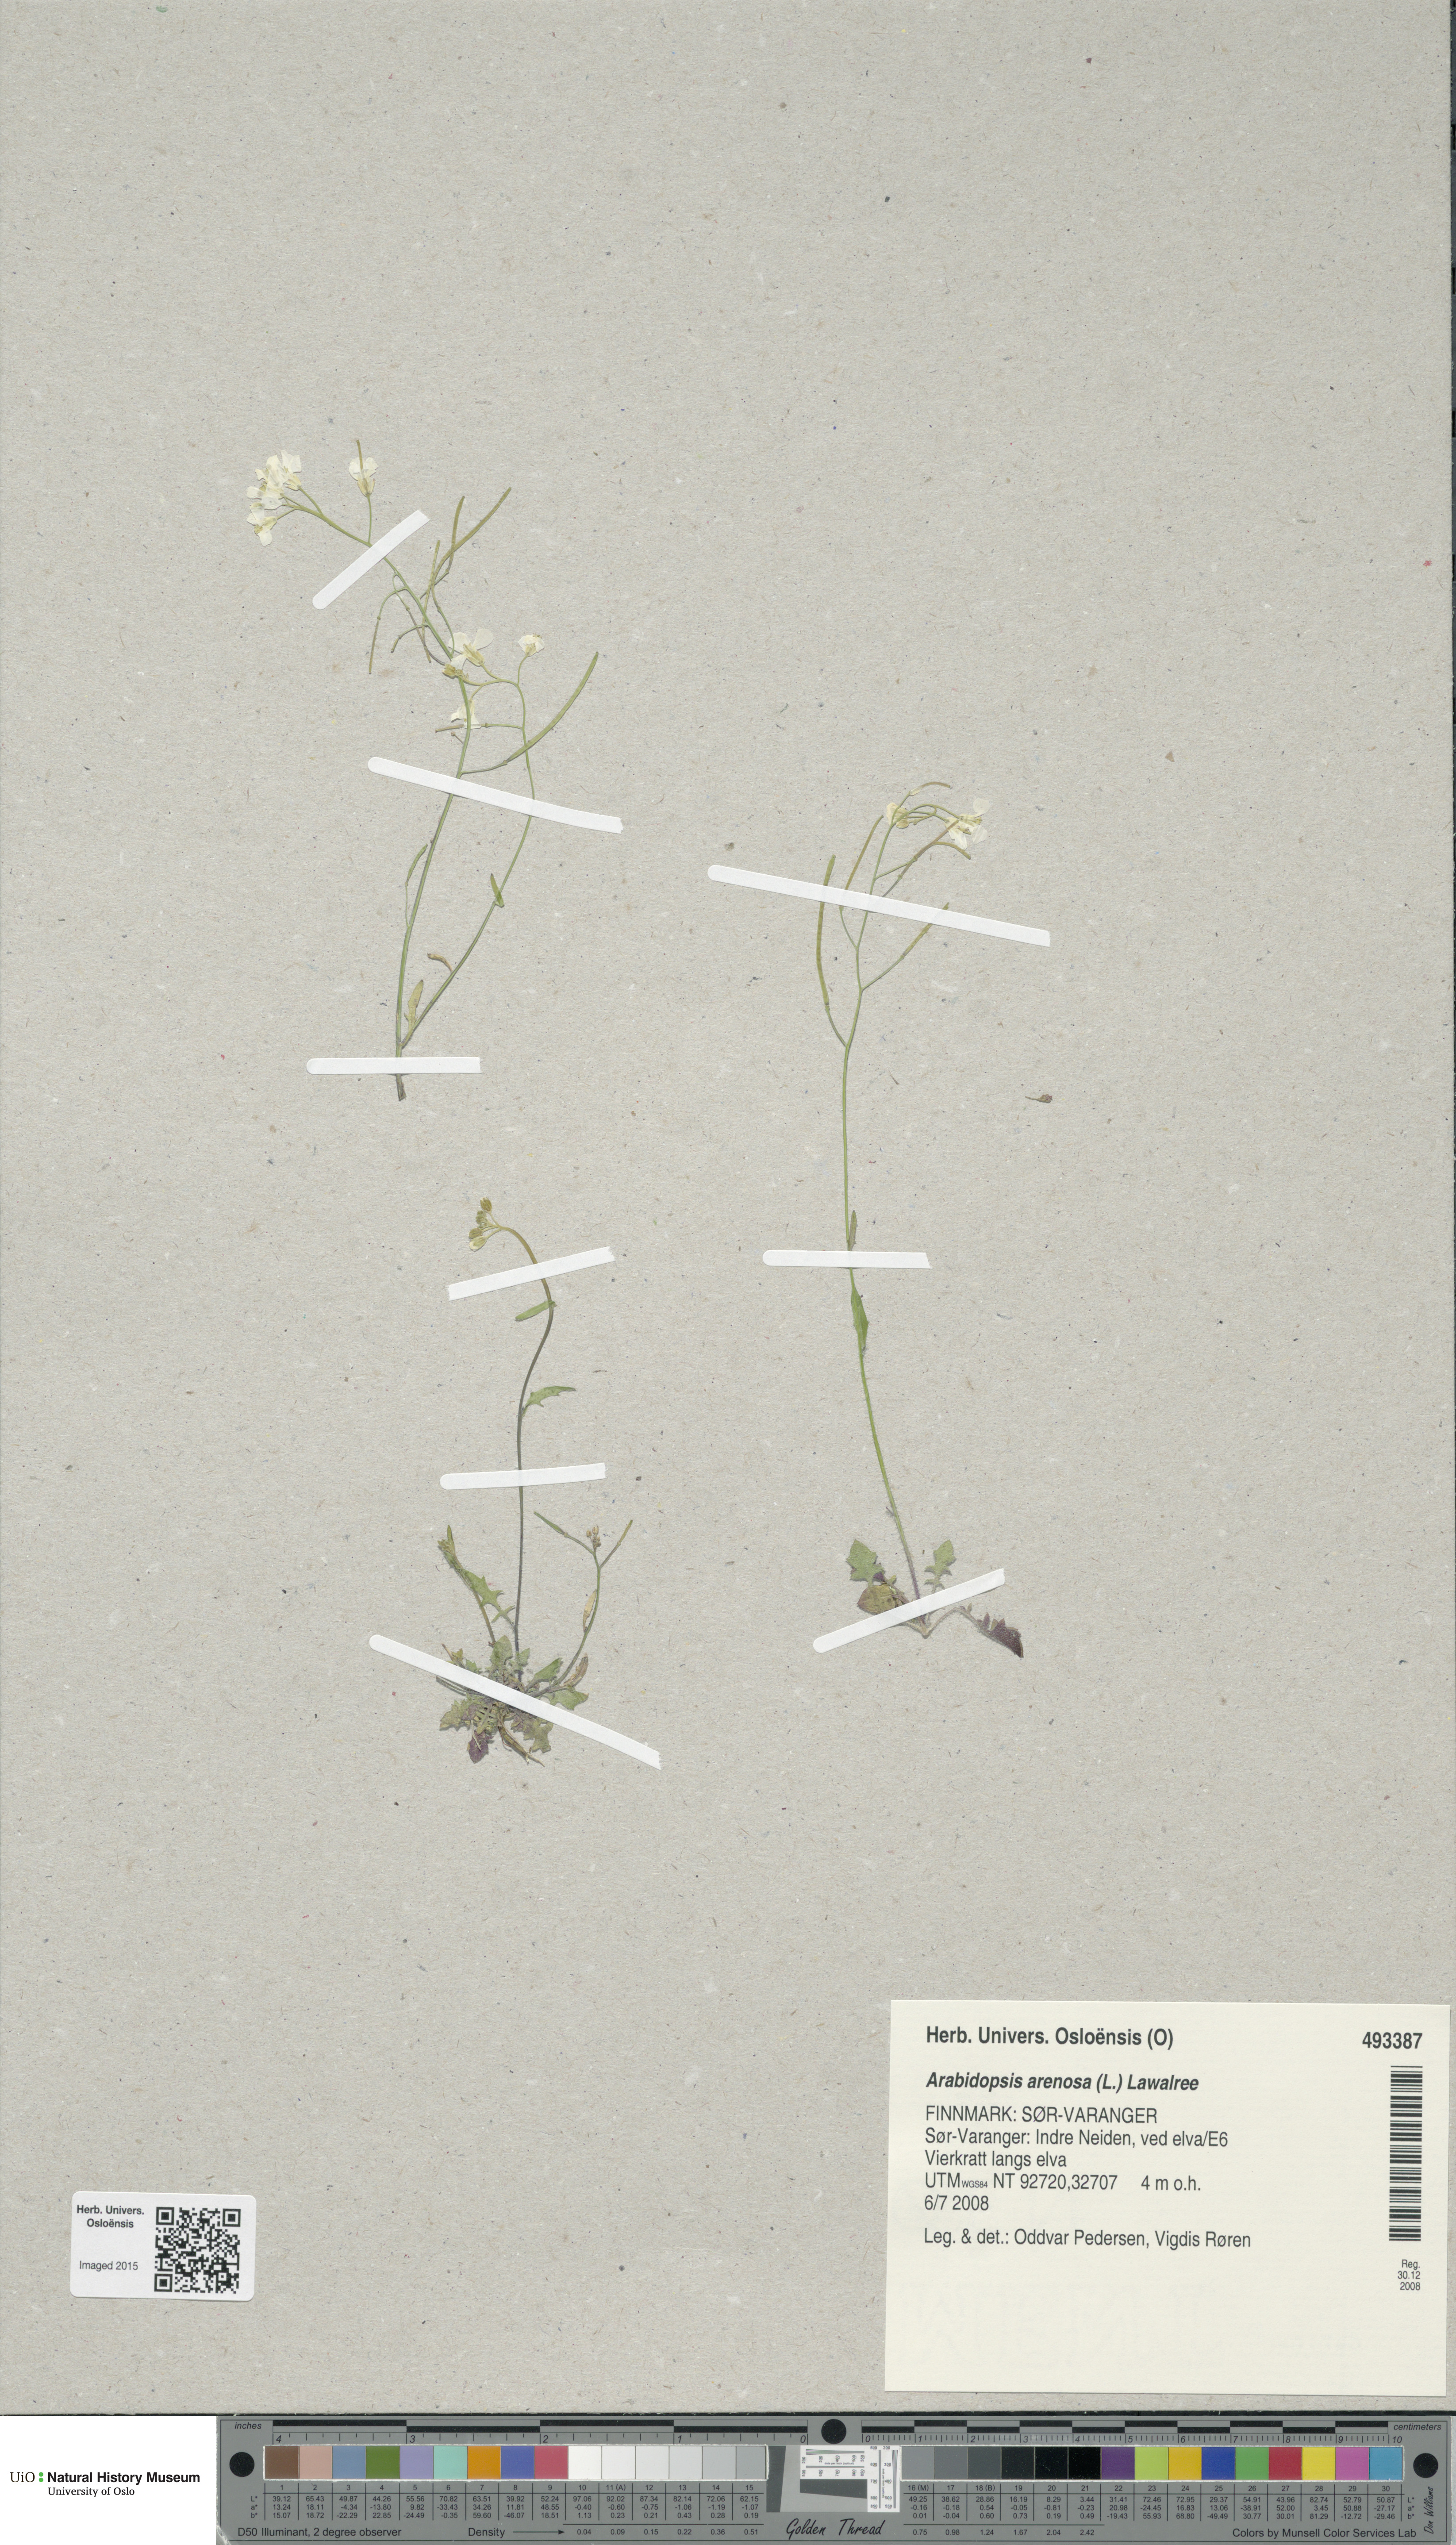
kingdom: Plantae
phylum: Tracheophyta
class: Magnoliopsida
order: Brassicales
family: Brassicaceae
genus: Arabidopsis
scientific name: Arabidopsis arenosa
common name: Sand rock-cress
